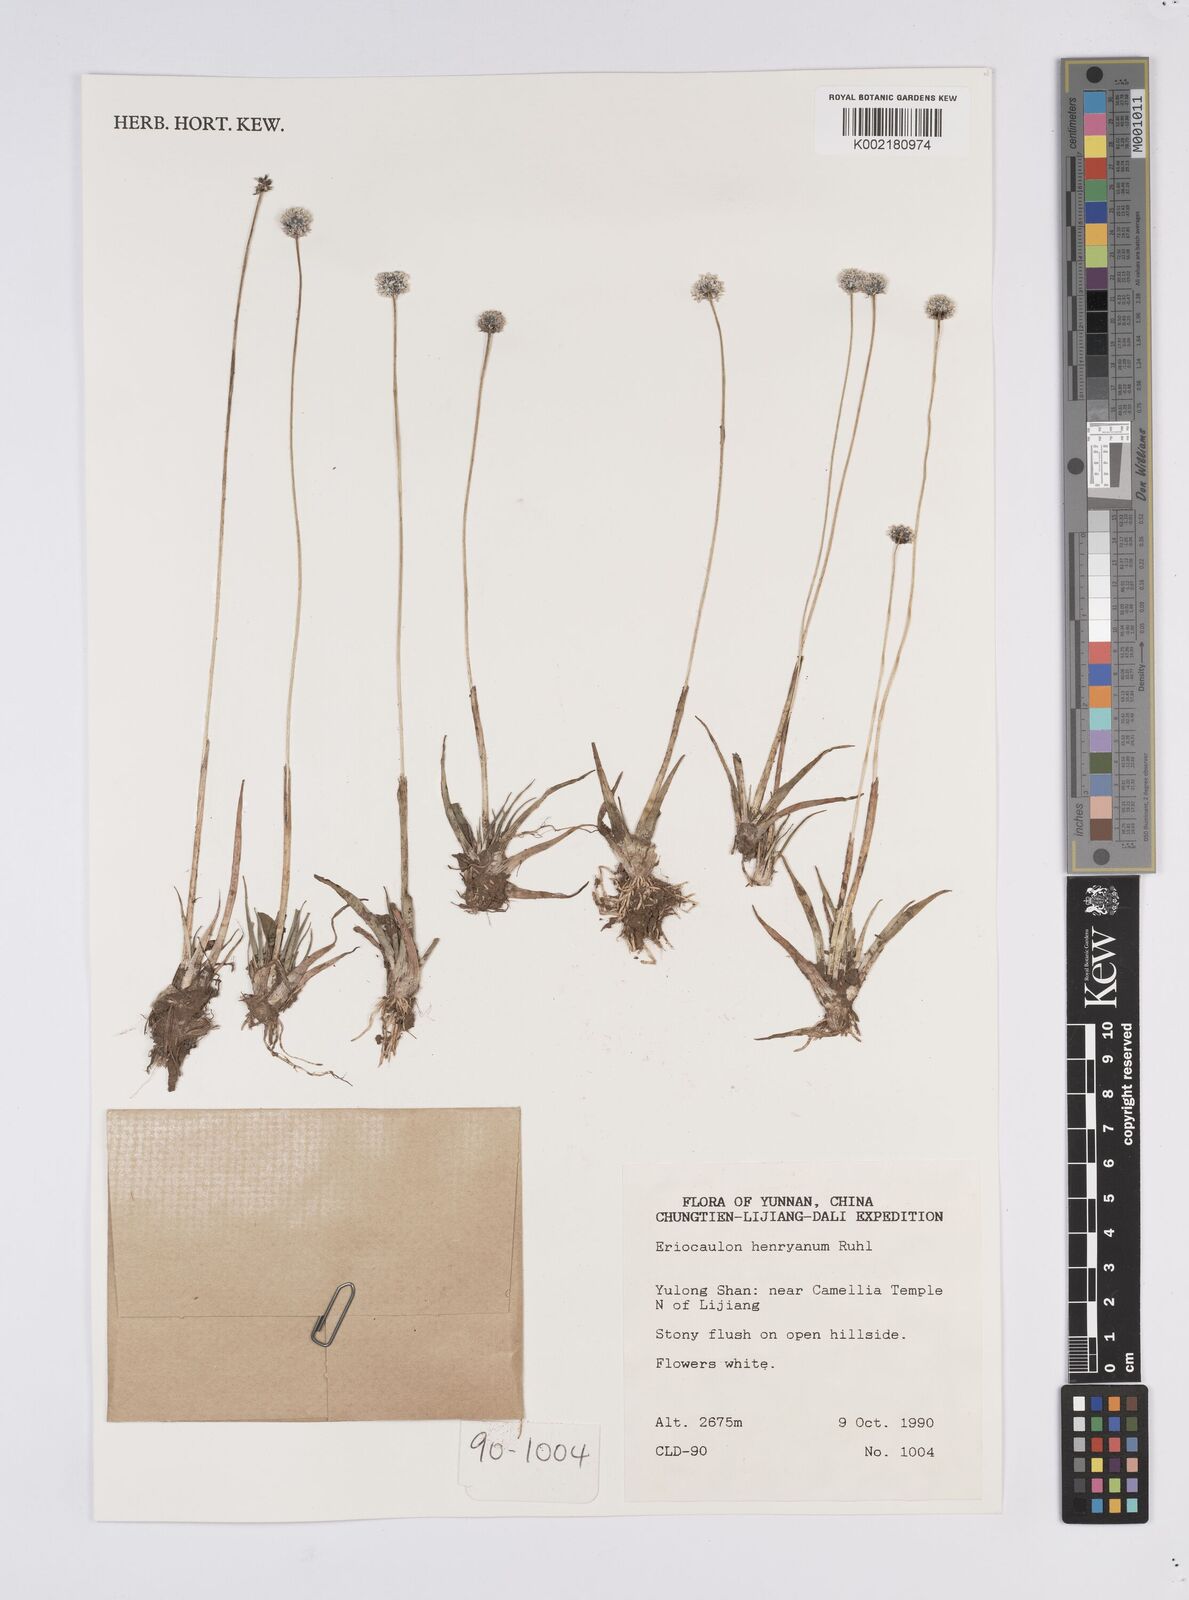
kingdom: Plantae
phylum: Tracheophyta
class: Liliopsida
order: Poales
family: Eriocaulaceae
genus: Eriocaulon
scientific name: Eriocaulon henryanum
